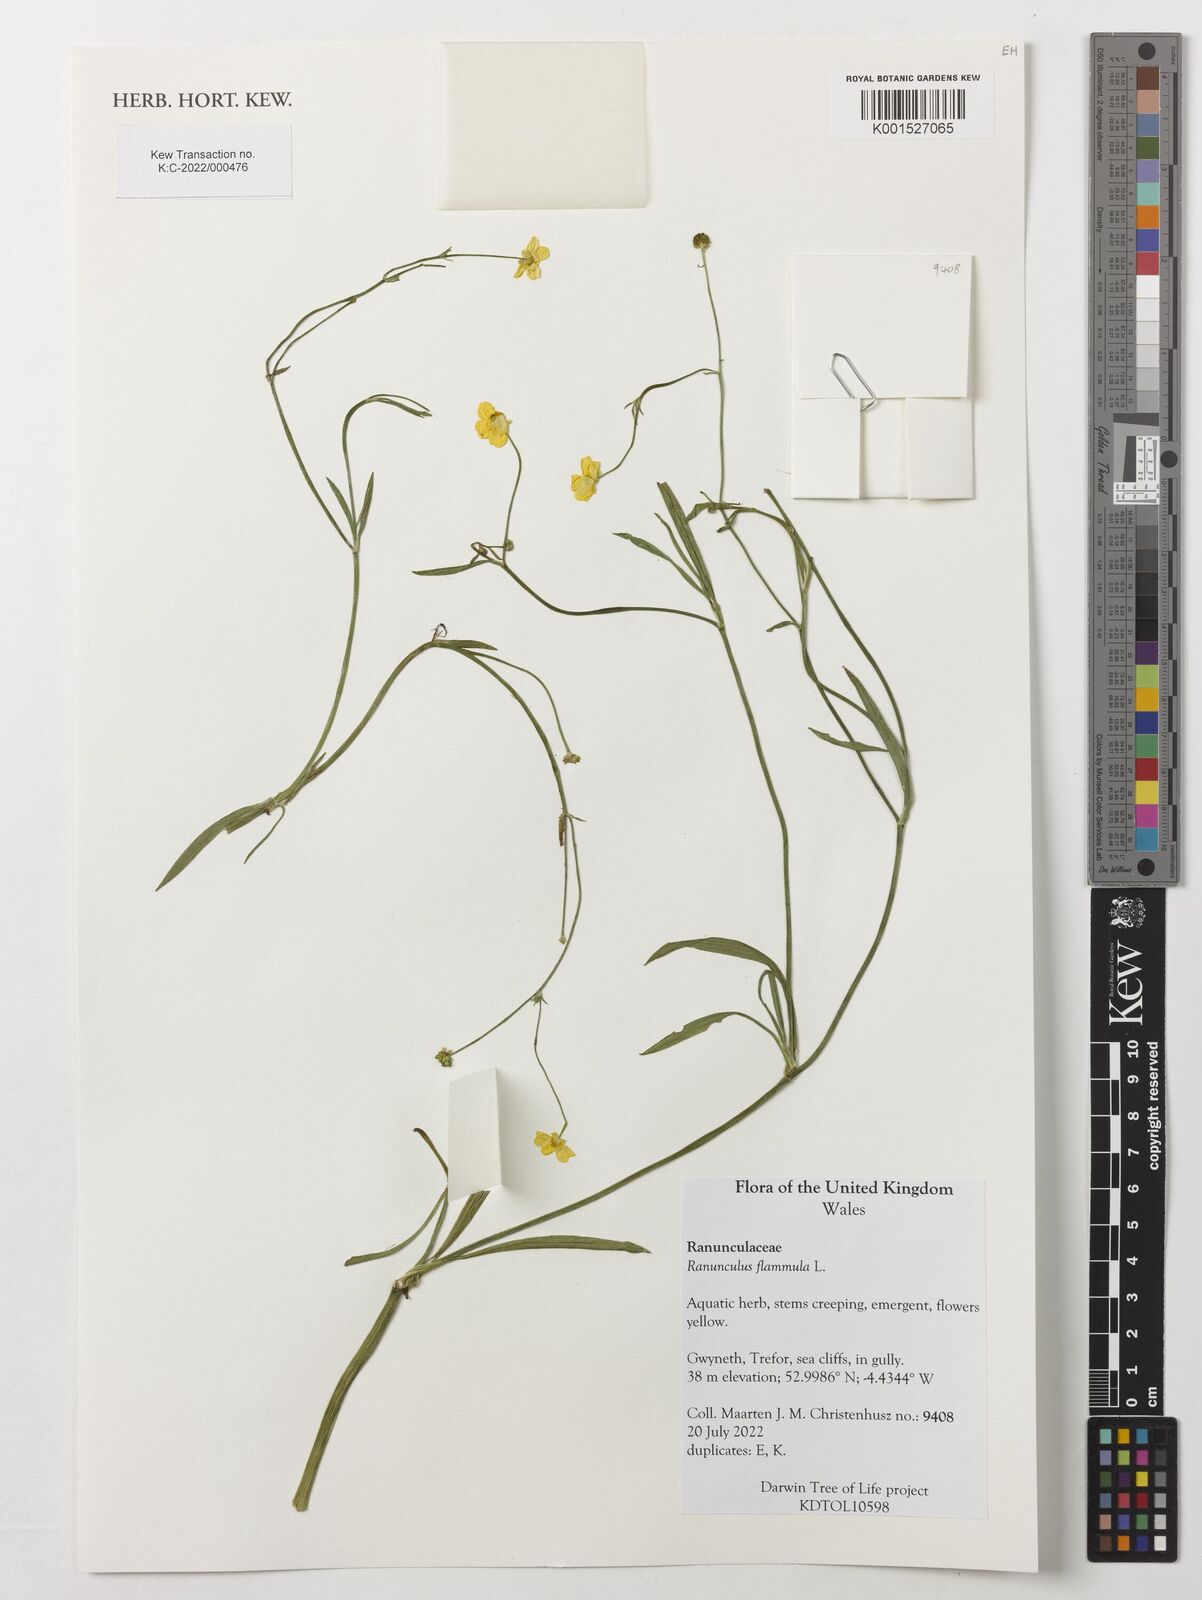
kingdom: Plantae
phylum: Tracheophyta
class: Magnoliopsida
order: Ranunculales
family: Ranunculaceae
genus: Ranunculus
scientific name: Ranunculus flammula
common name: Lesser spearwort
